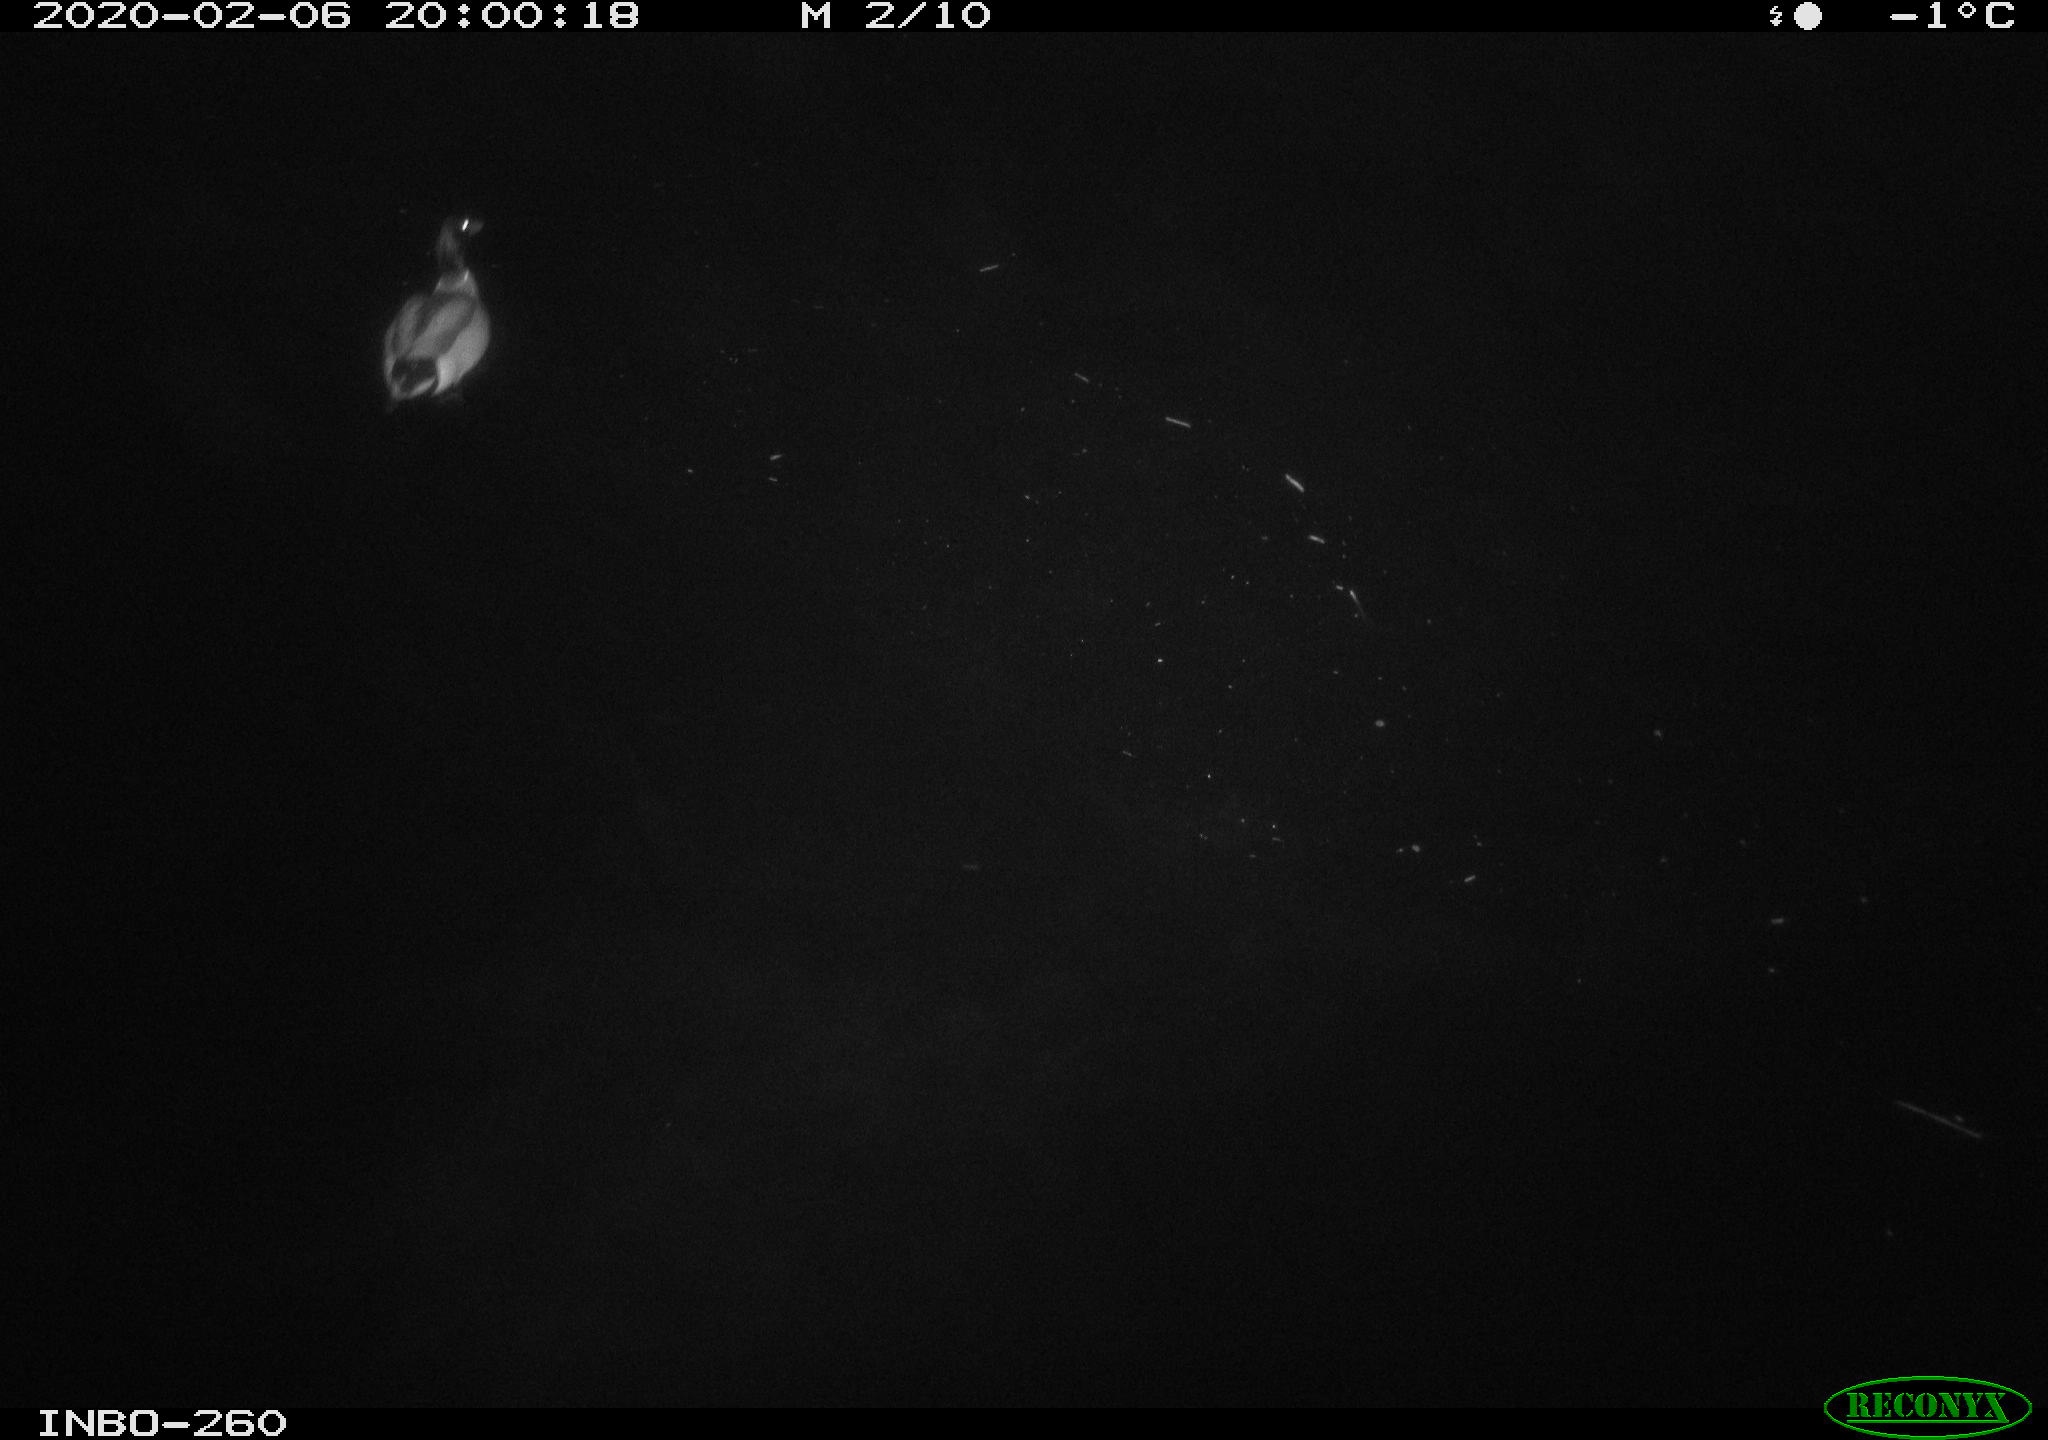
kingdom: Animalia
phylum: Chordata
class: Aves
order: Anseriformes
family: Anatidae
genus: Anas
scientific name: Anas platyrhynchos
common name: Mallard
